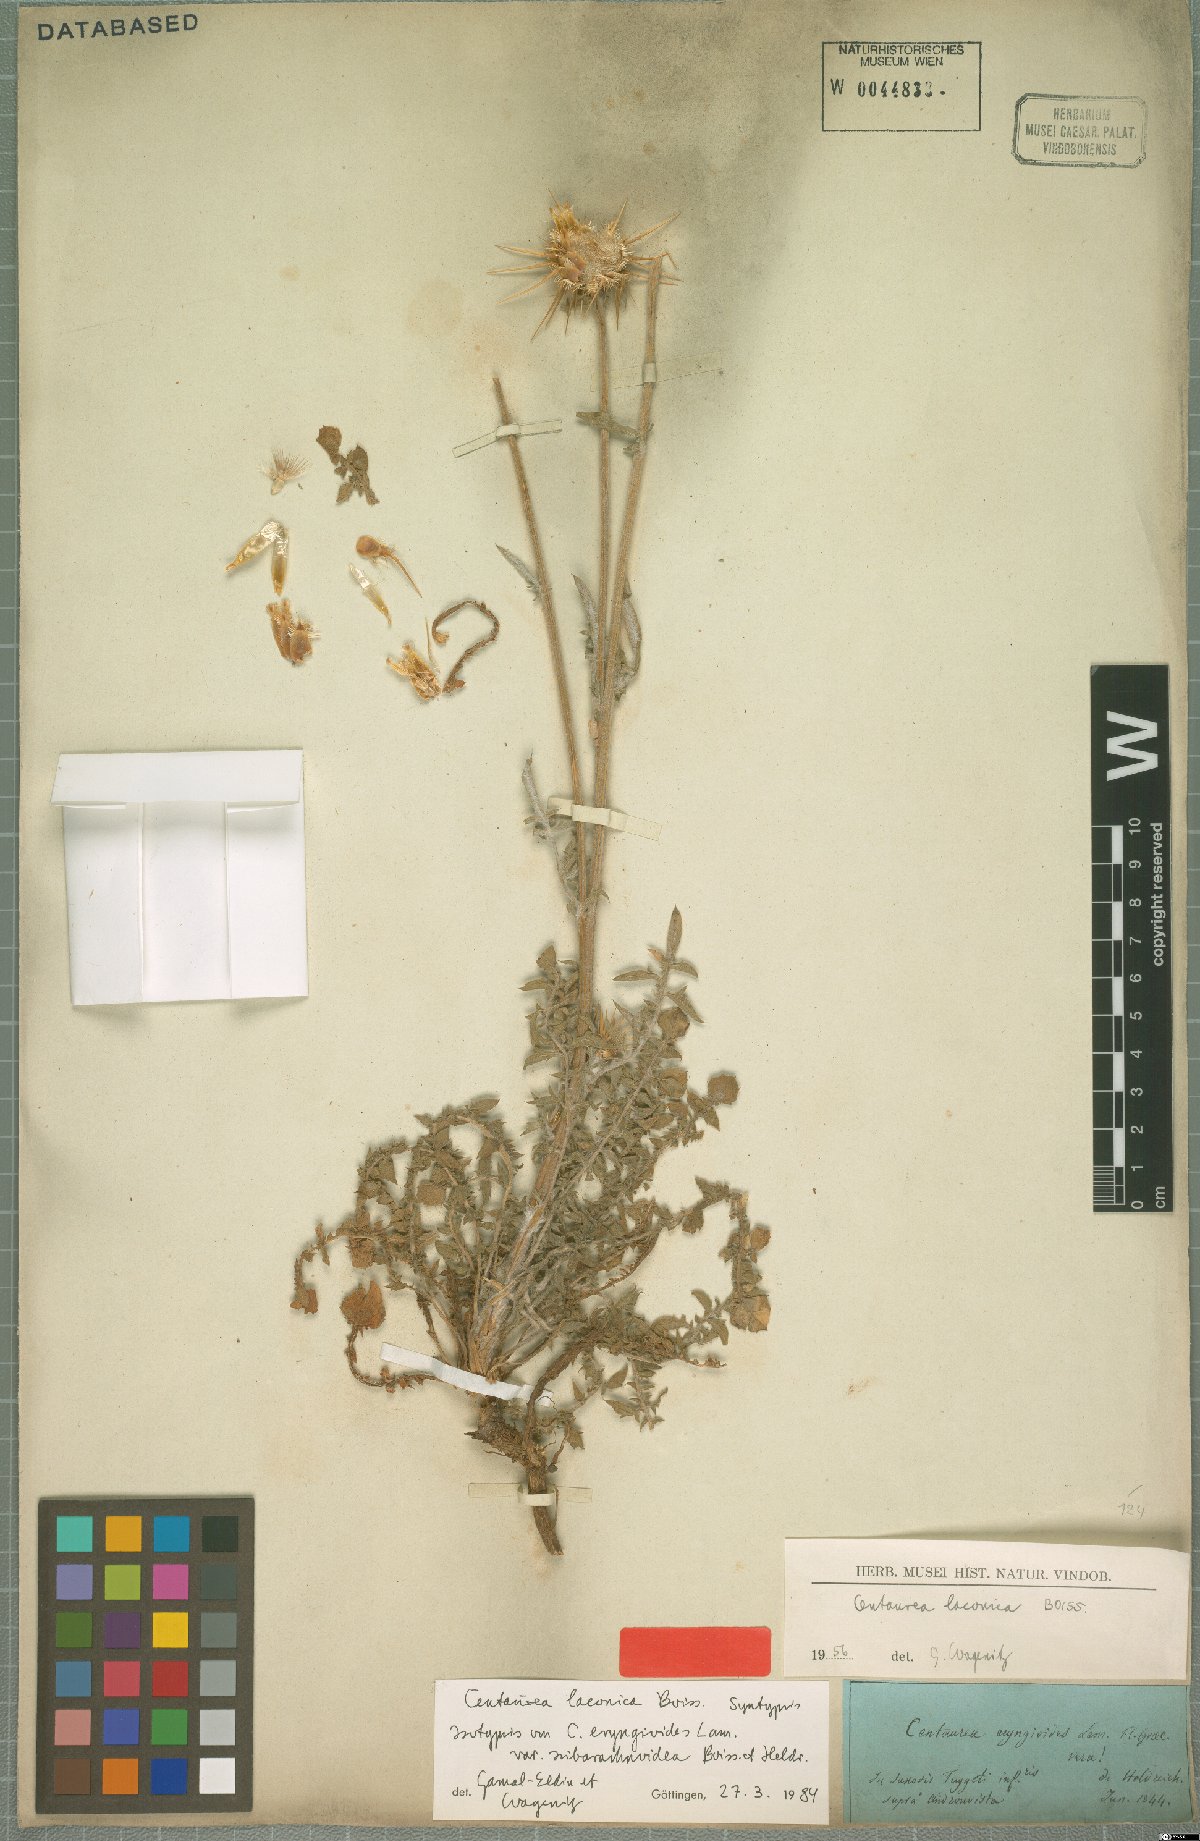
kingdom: Plantae
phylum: Tracheophyta
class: Magnoliopsida
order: Asterales
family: Asteraceae
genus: Centaurea
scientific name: Centaurea laconica
